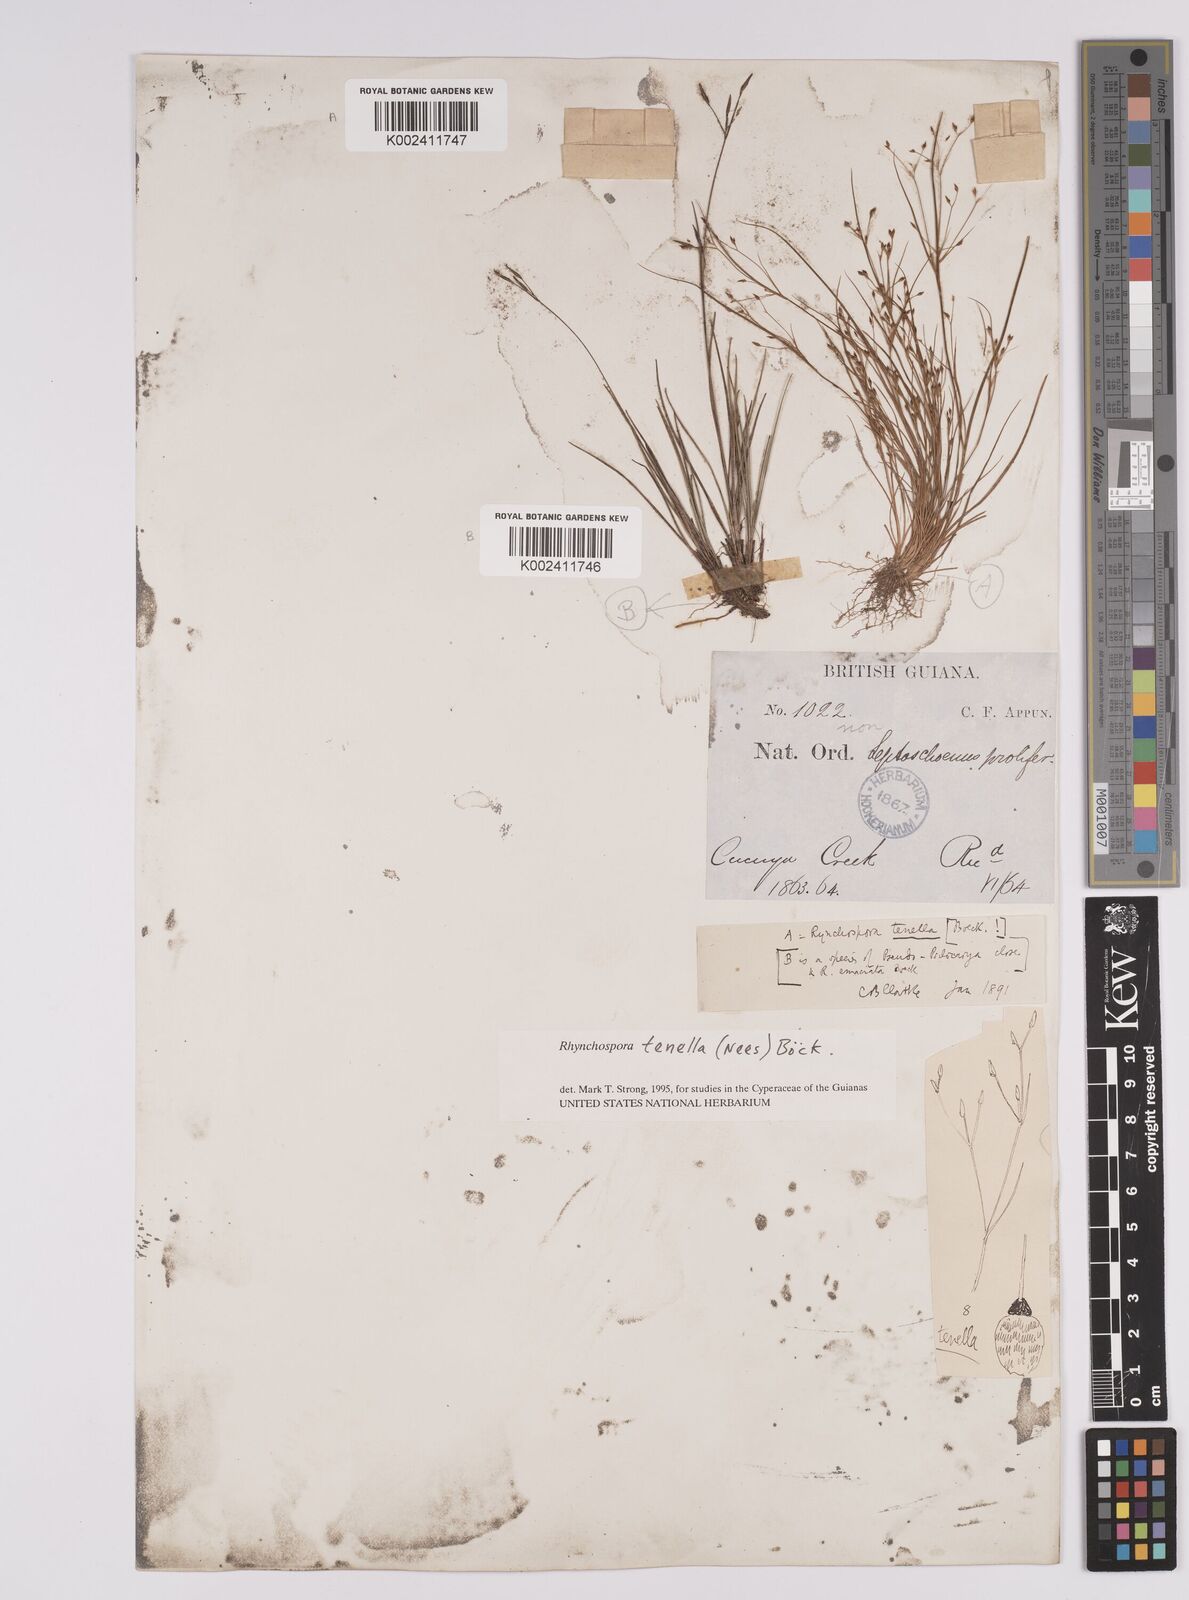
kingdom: Plantae
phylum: Tracheophyta
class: Liliopsida
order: Poales
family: Cyperaceae
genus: Rhynchospora
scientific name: Rhynchospora tenella
